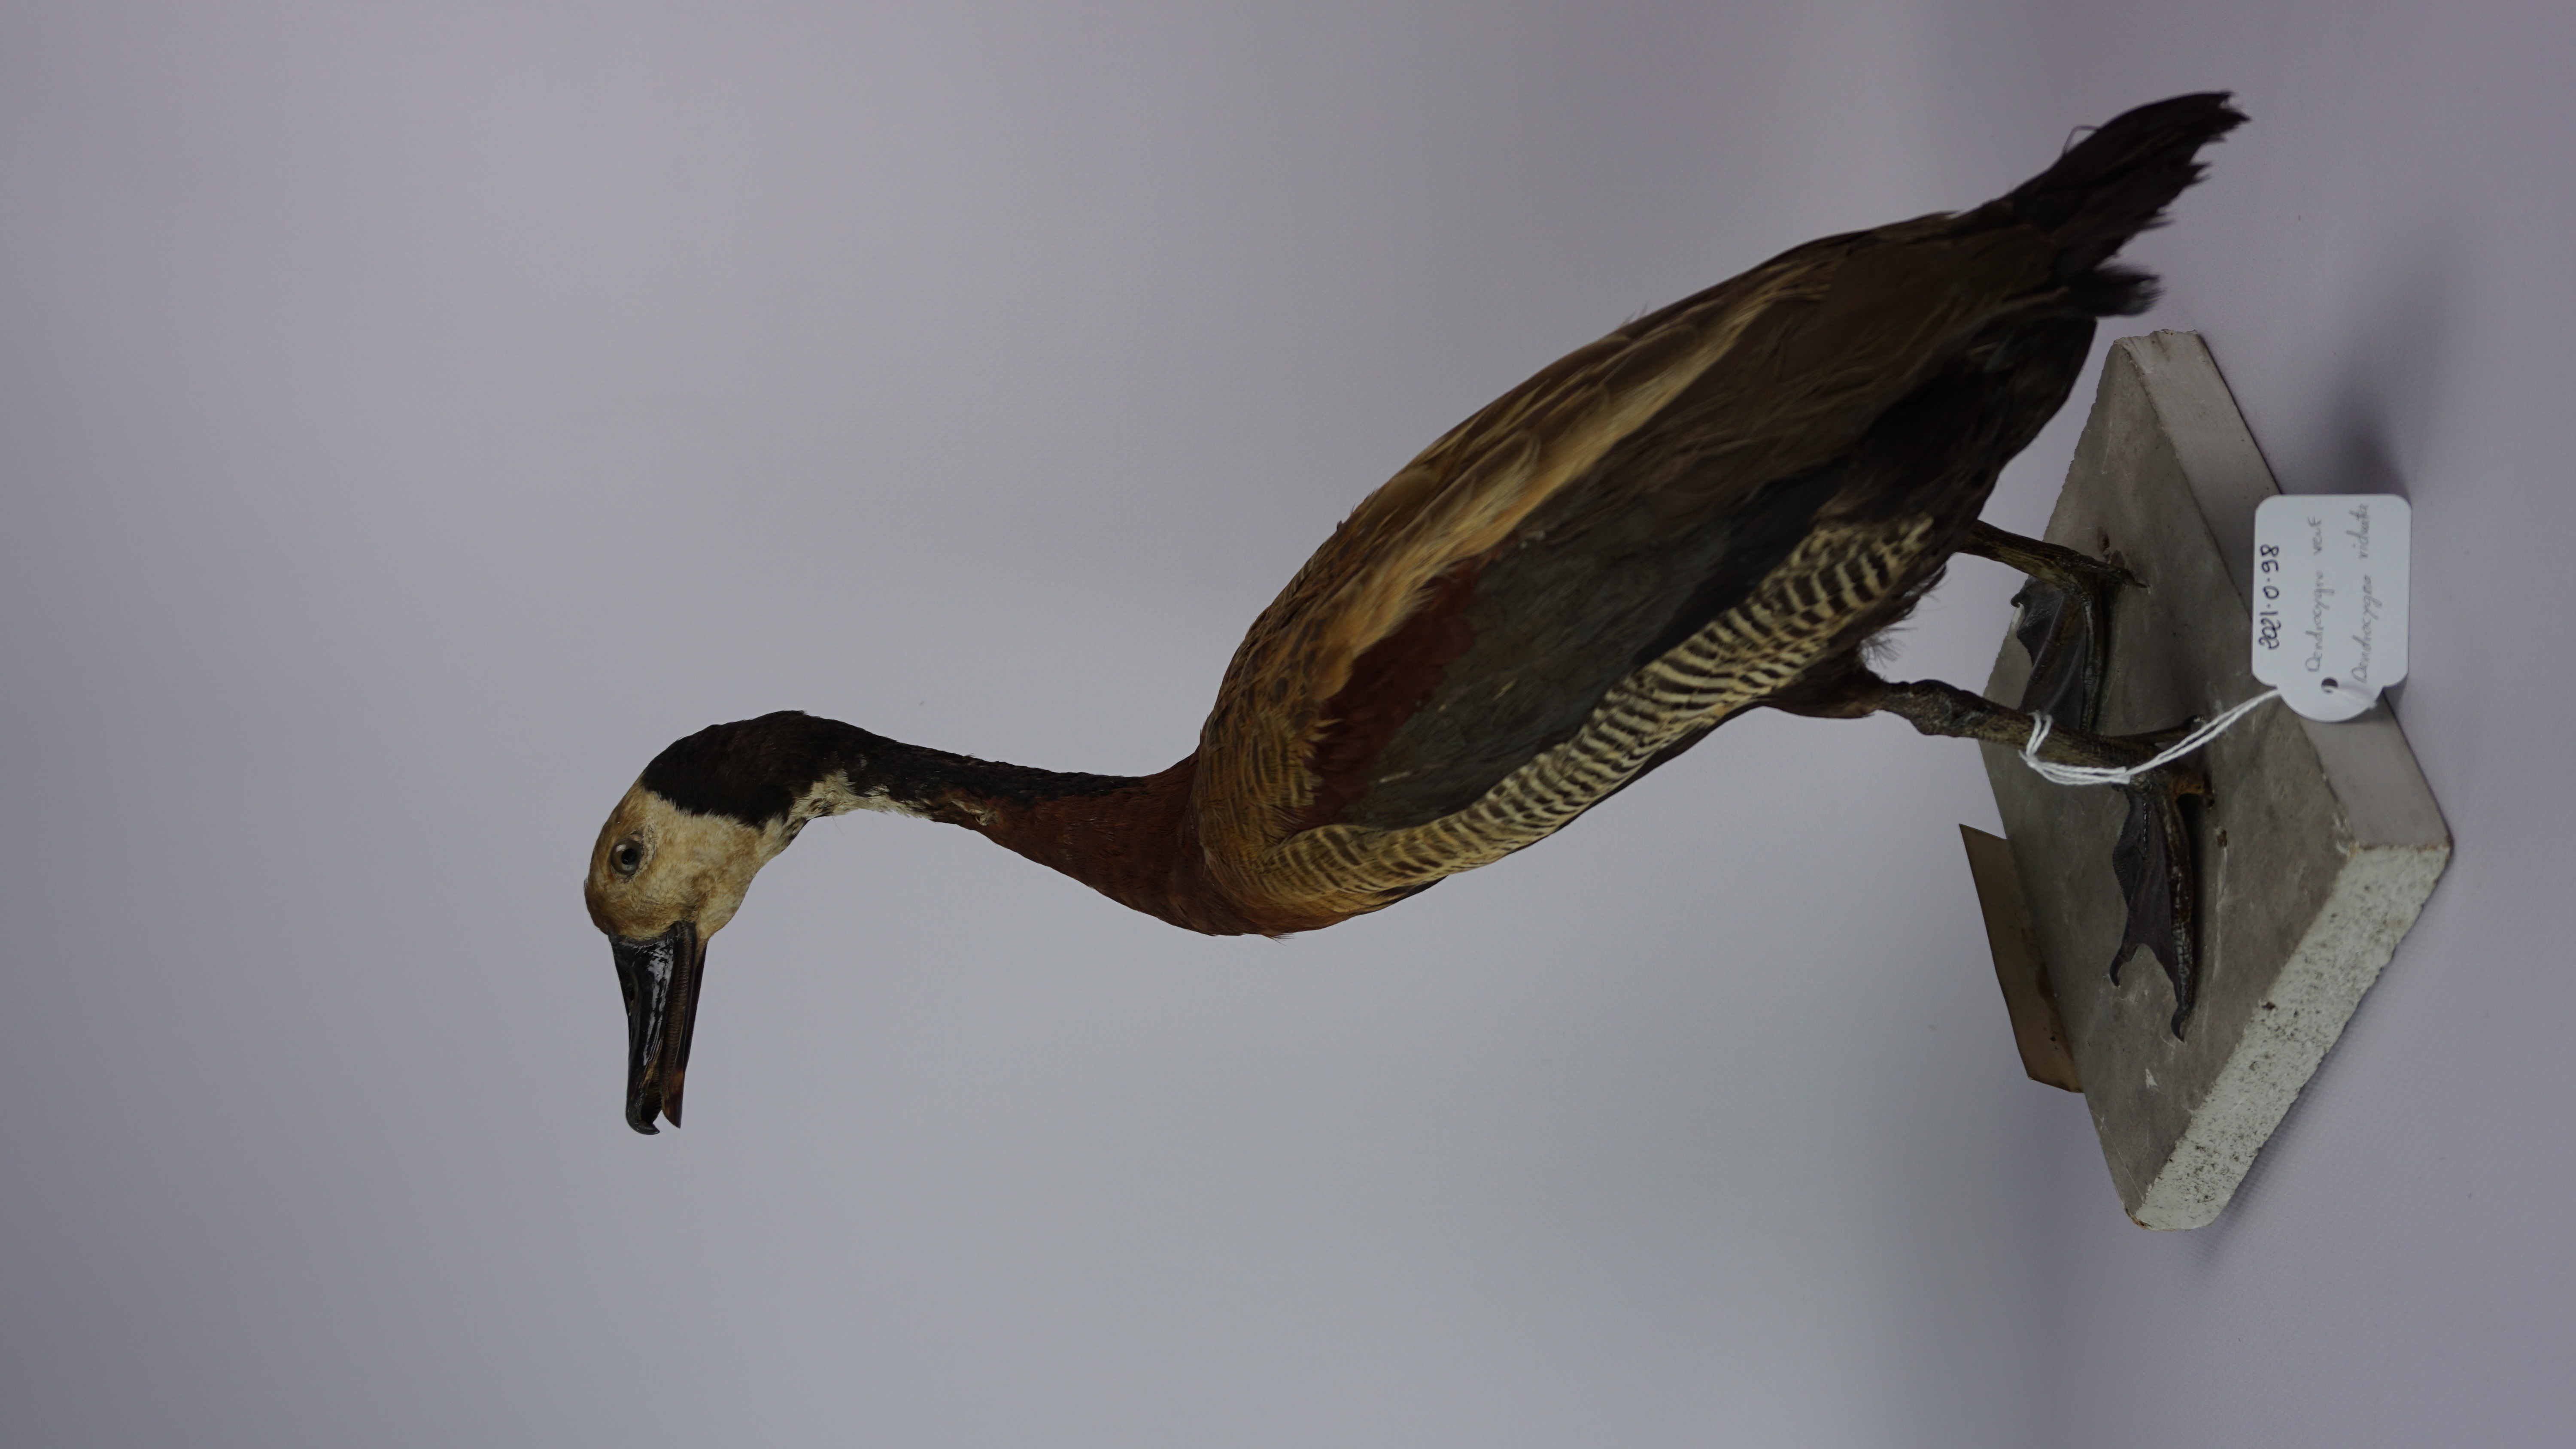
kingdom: Animalia
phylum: Chordata
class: Aves
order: Anseriformes
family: Anatidae
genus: Dendrocygna
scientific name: Dendrocygna viduata
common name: White-faced whistling duck
